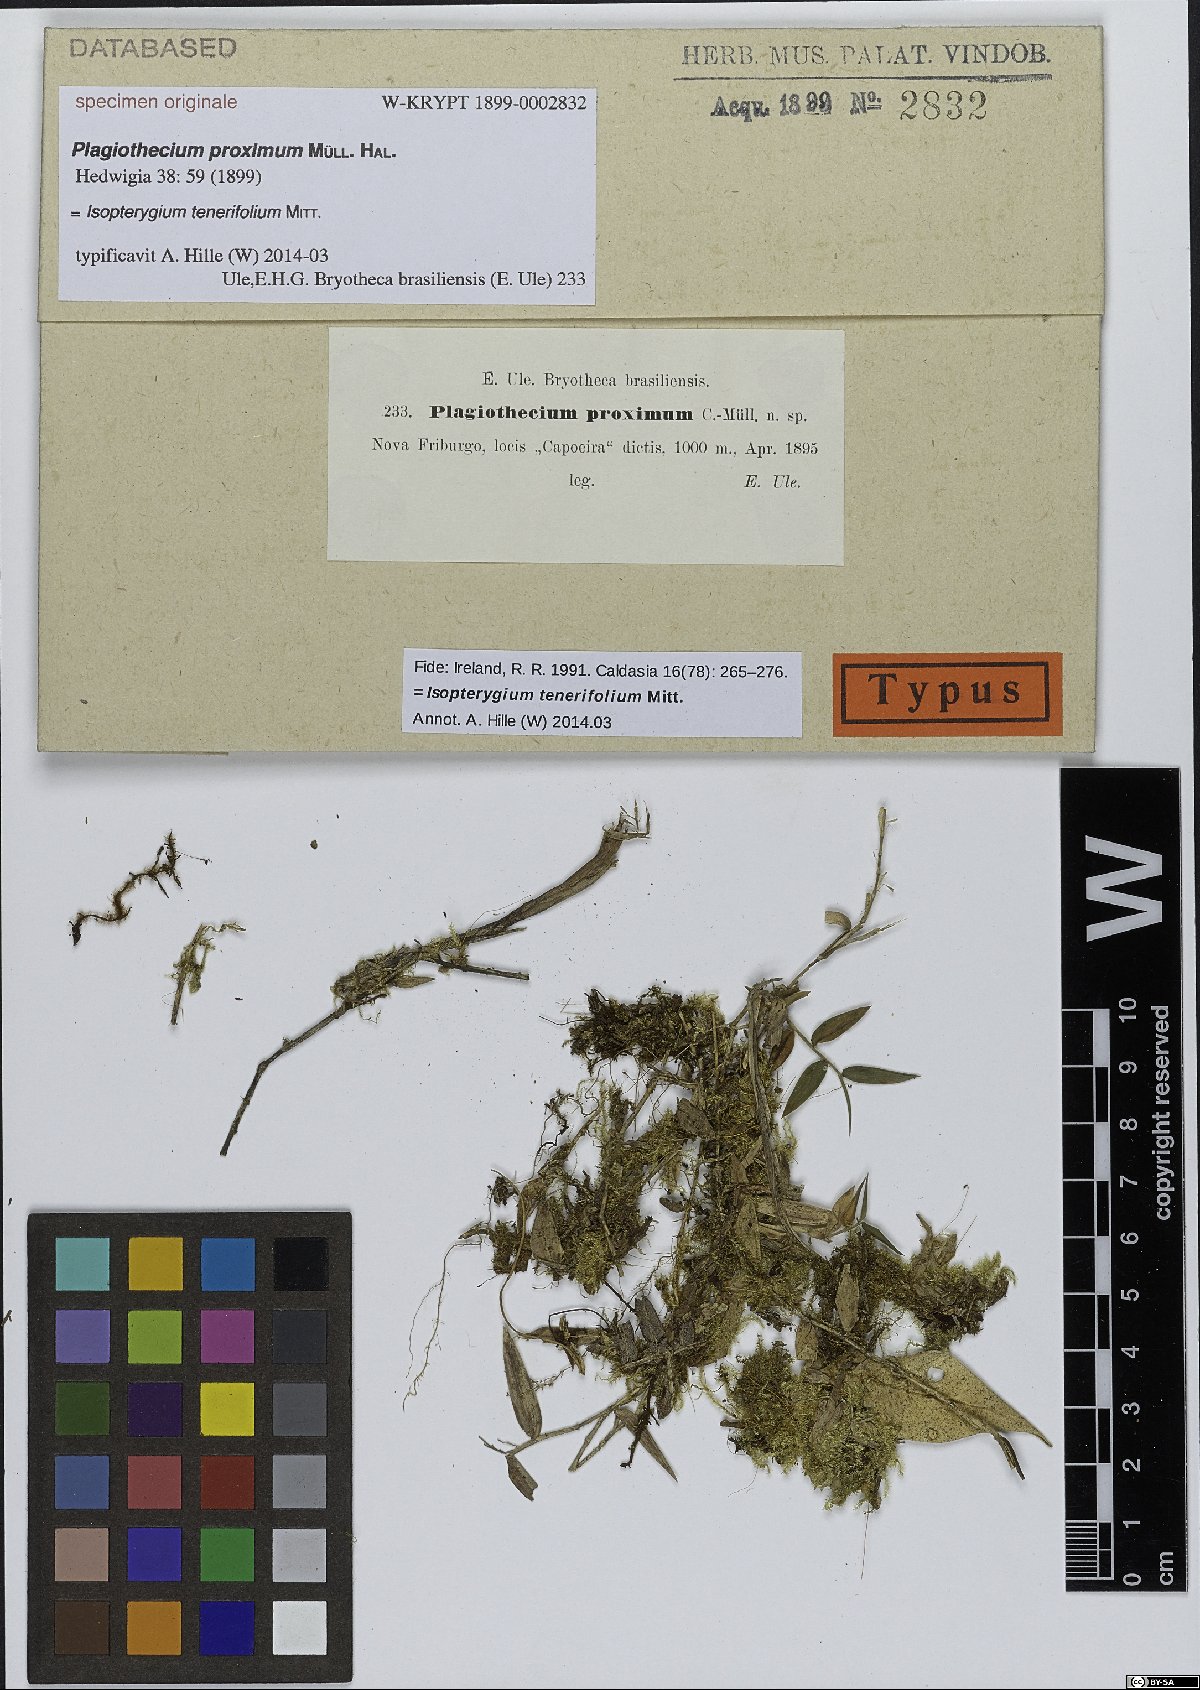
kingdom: Plantae
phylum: Bryophyta
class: Bryopsida
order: Hypnales
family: Plagiotheciaceae
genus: Plagiothecium
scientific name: Plagiothecium
